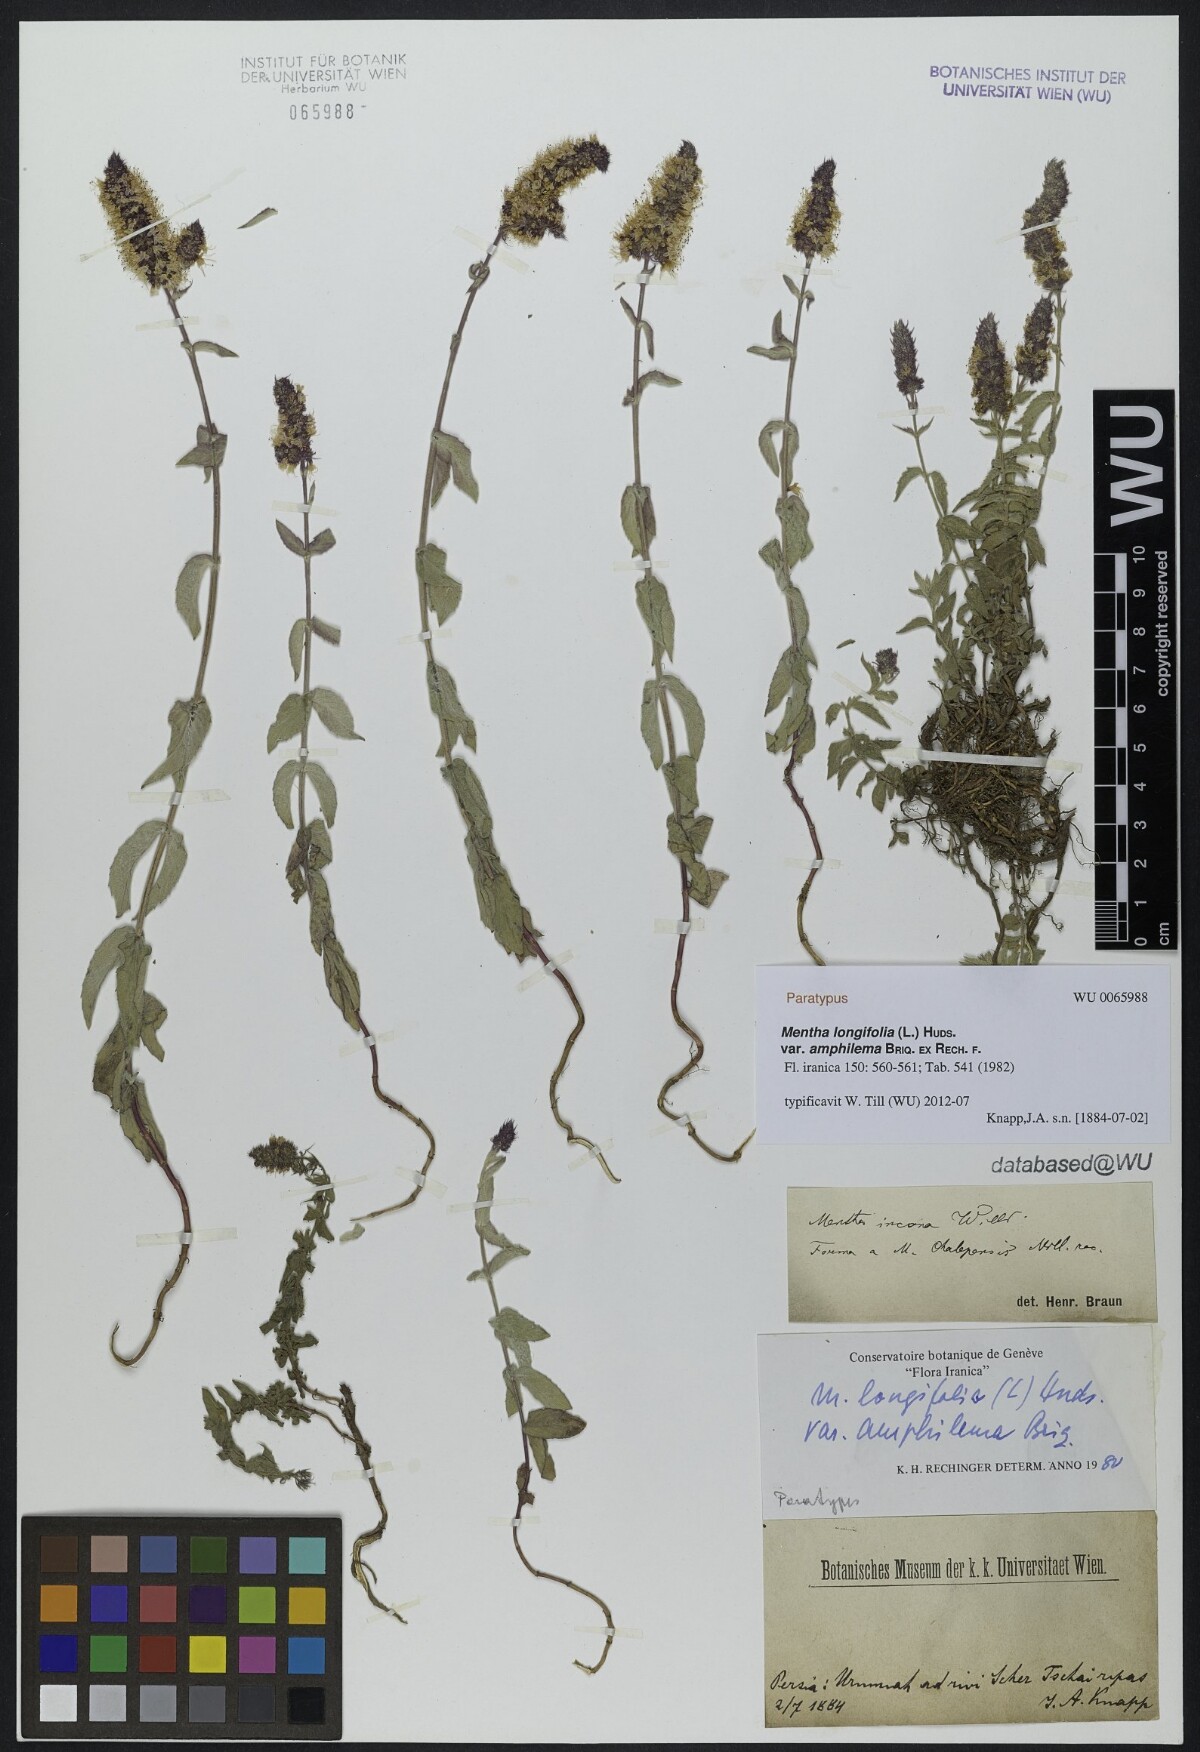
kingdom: Plantae
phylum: Tracheophyta
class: Magnoliopsida
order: Lamiales
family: Lamiaceae
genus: Mentha
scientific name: Mentha longifolia
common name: Horse mint
